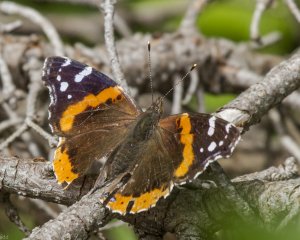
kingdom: Animalia
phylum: Arthropoda
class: Insecta
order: Lepidoptera
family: Nymphalidae
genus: Vanessa
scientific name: Vanessa atalanta
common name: Red Admiral
